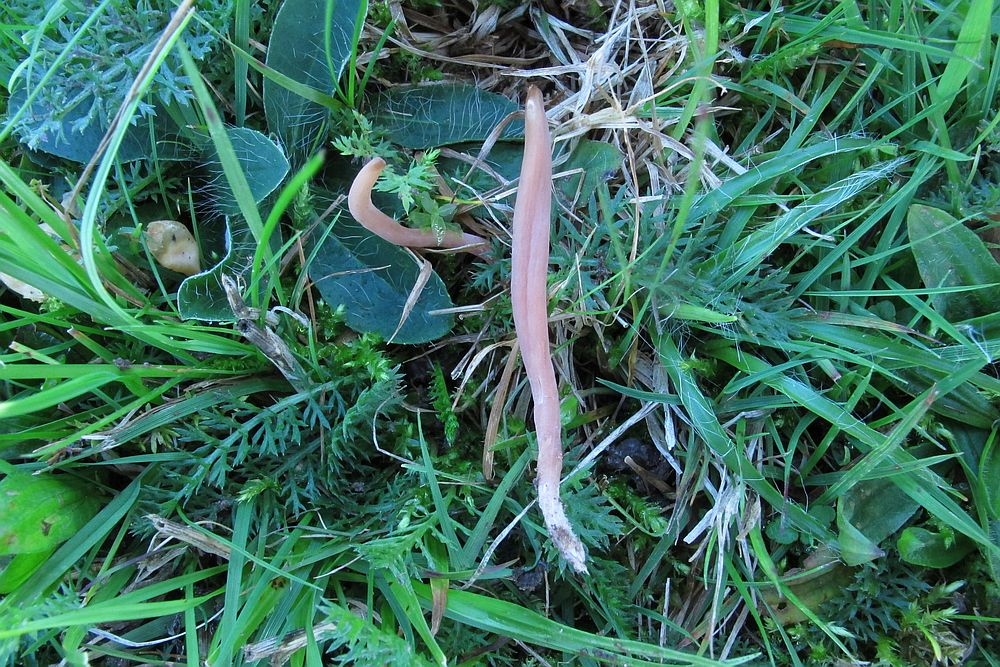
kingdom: Fungi
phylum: Basidiomycota
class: Agaricomycetes
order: Agaricales
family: Clavariaceae
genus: Clavaria
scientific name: Clavaria fumosa
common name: røggrå køllesvamp
